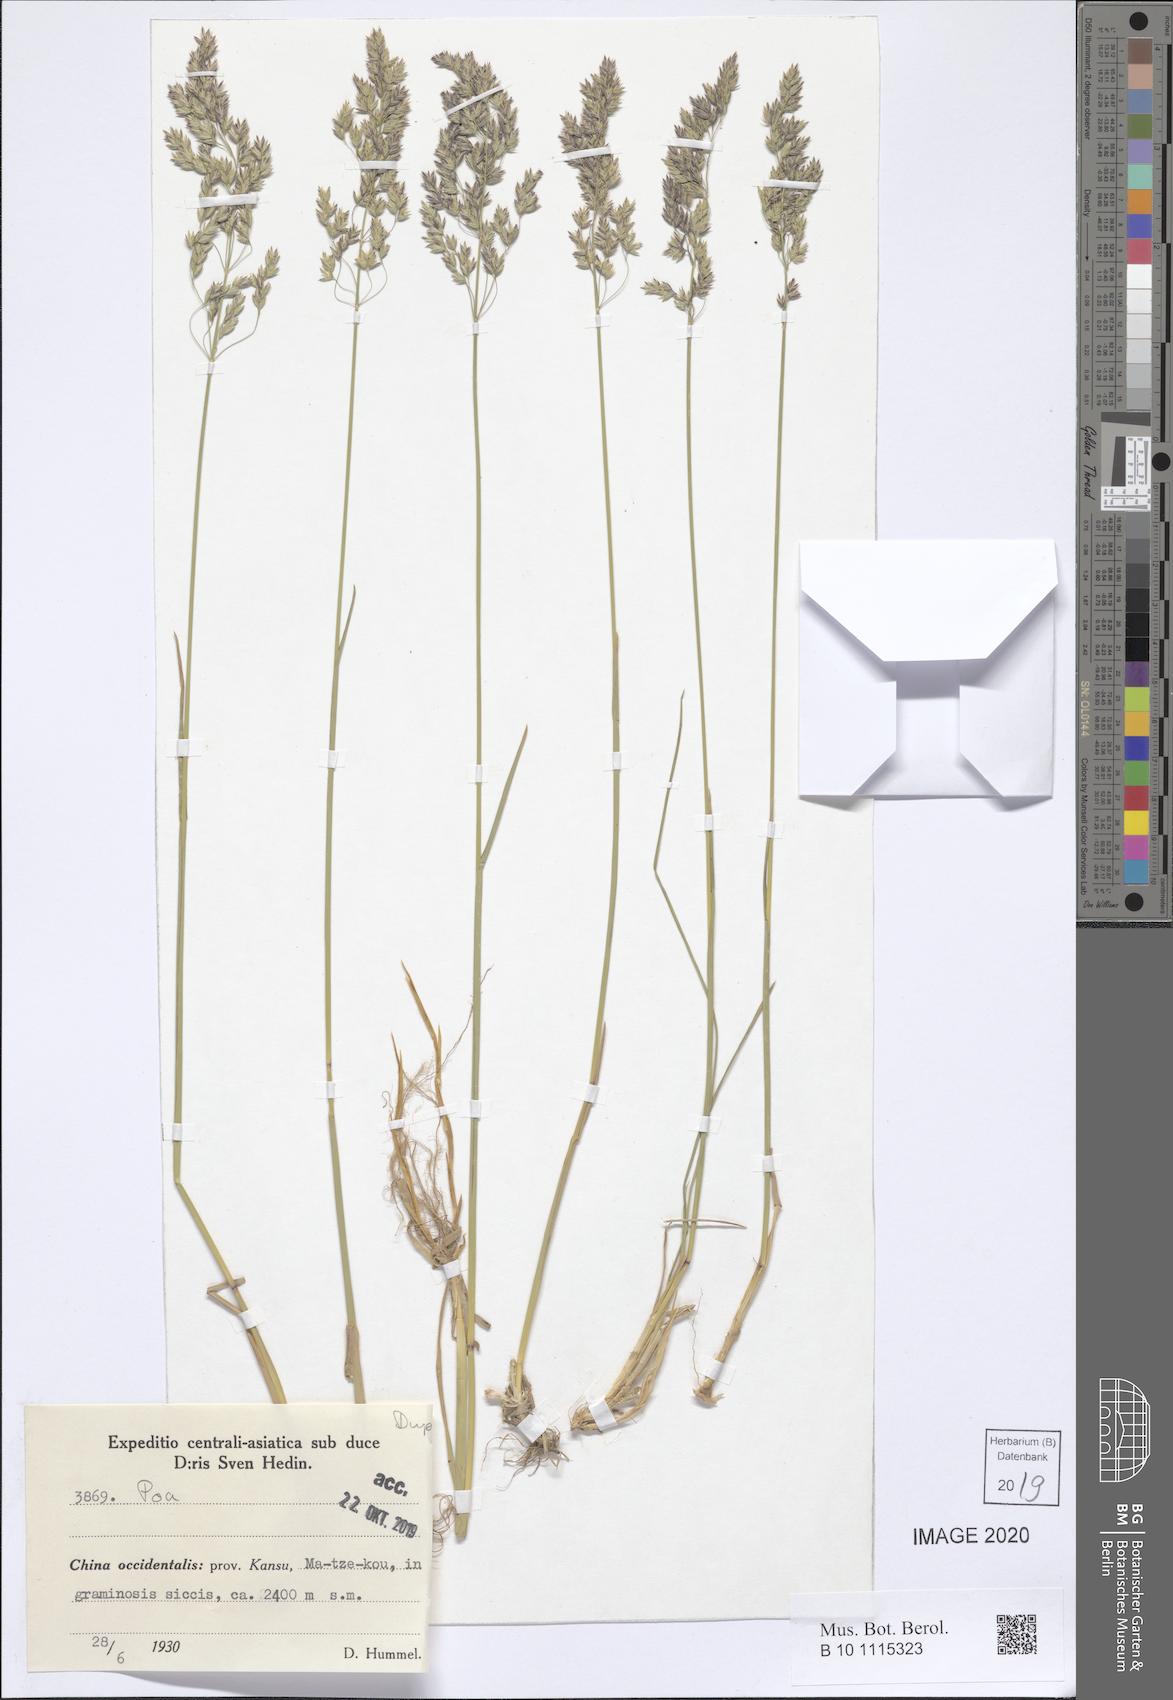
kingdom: Plantae
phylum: Tracheophyta
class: Liliopsida
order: Poales
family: Poaceae
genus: Poa
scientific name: Poa
